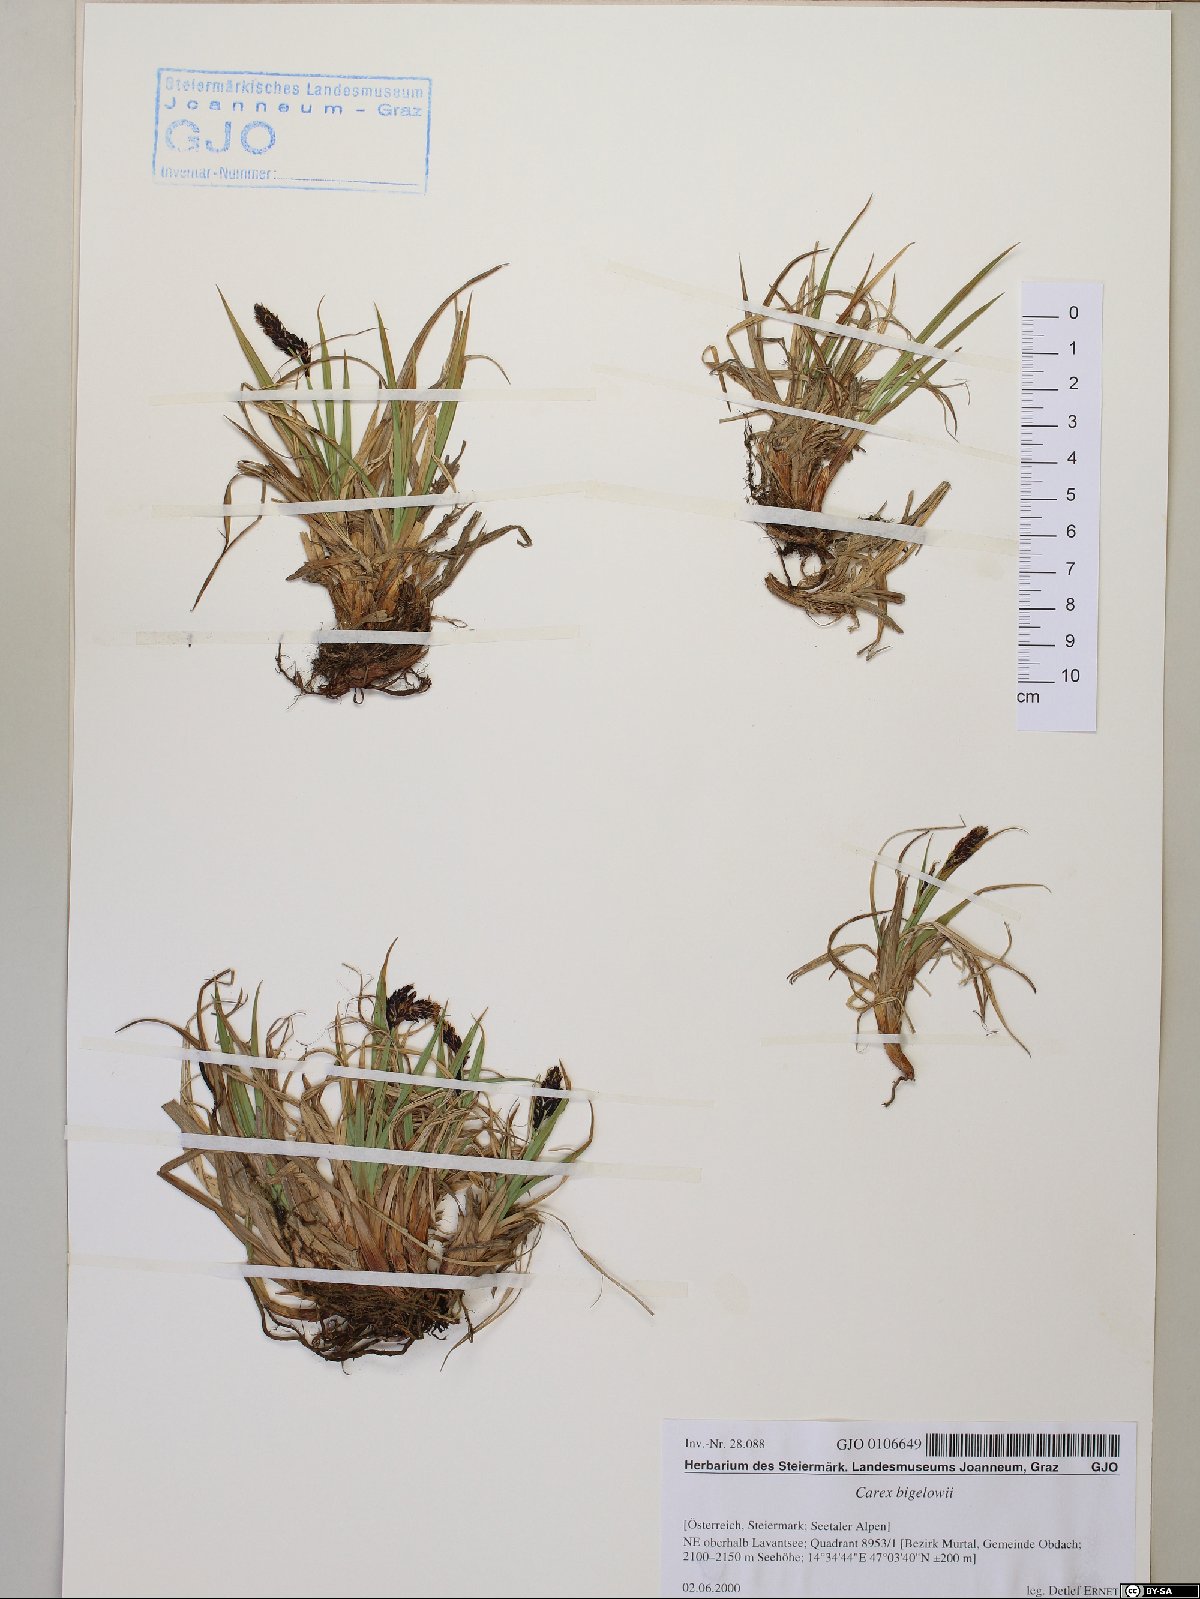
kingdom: Plantae
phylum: Tracheophyta
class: Liliopsida
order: Poales
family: Cyperaceae
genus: Carex
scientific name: Carex bigelowii
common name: Stiff sedge
